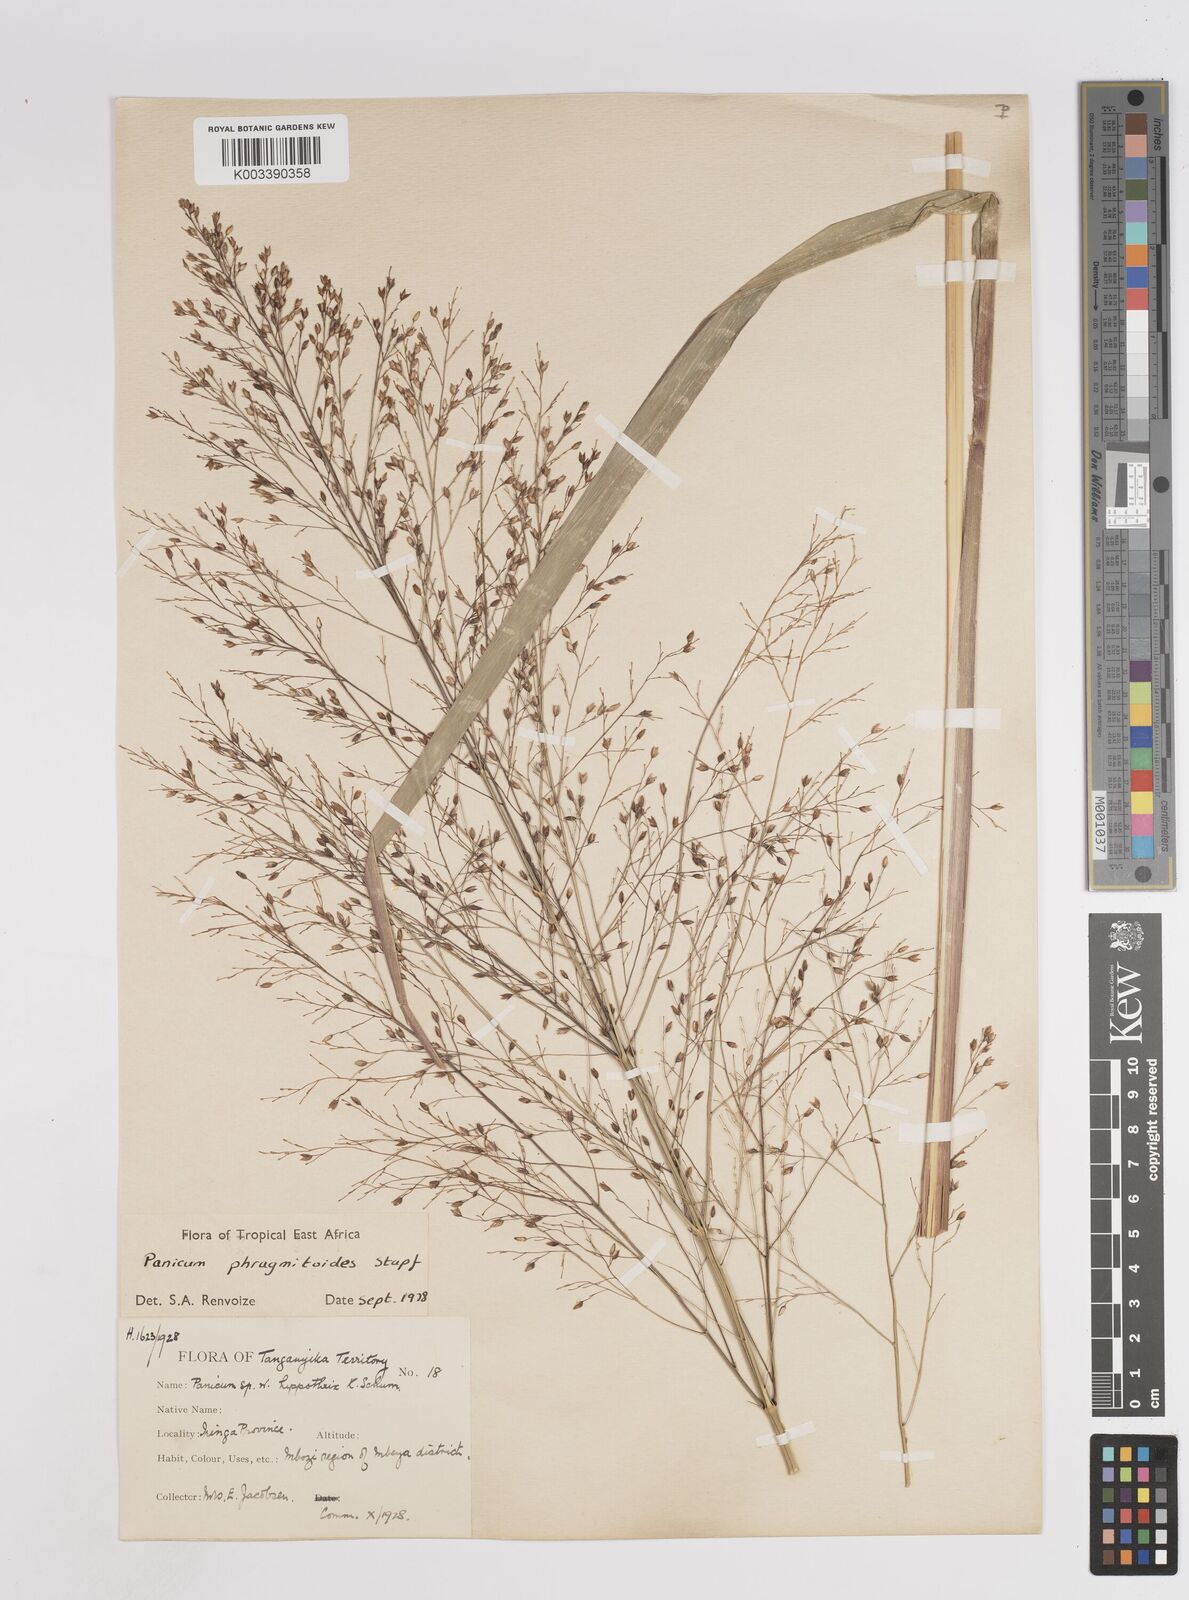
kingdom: Plantae
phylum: Tracheophyta
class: Liliopsida
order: Poales
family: Poaceae
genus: Panicum
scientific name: Panicum phragmitoides
